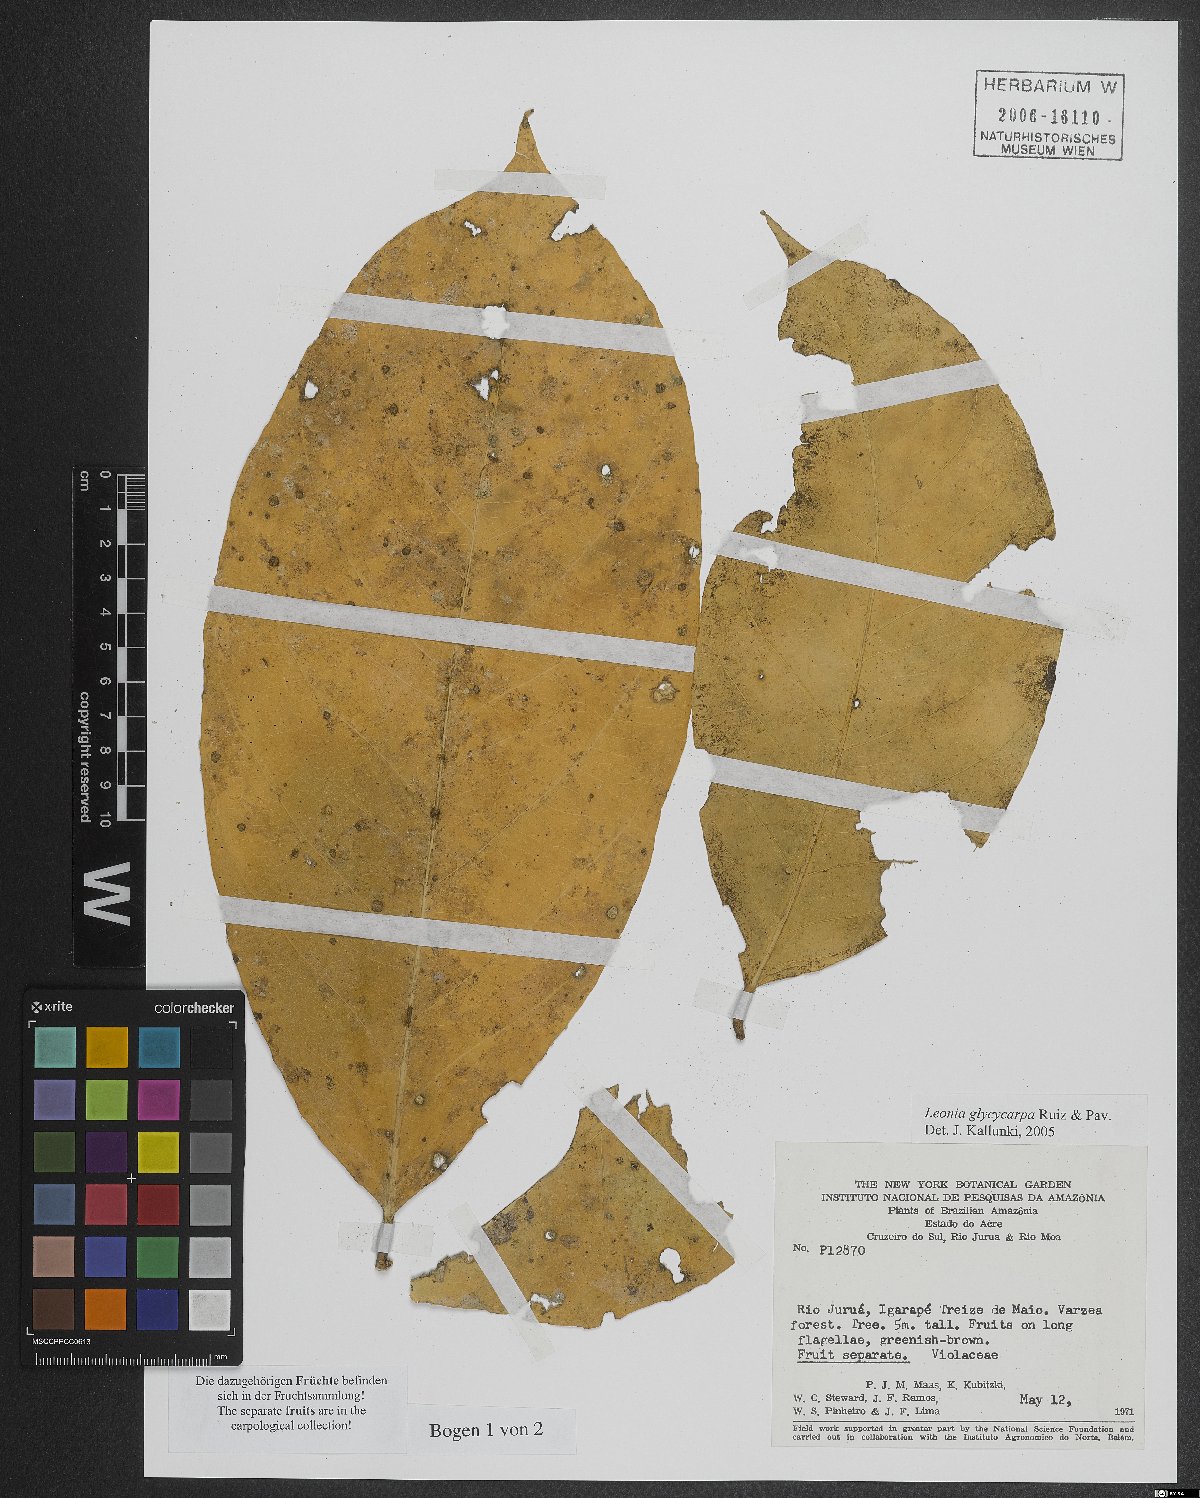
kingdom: Plantae
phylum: Tracheophyta
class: Magnoliopsida
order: Malpighiales
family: Violaceae
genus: Leonia
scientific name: Leonia glycycarpa
